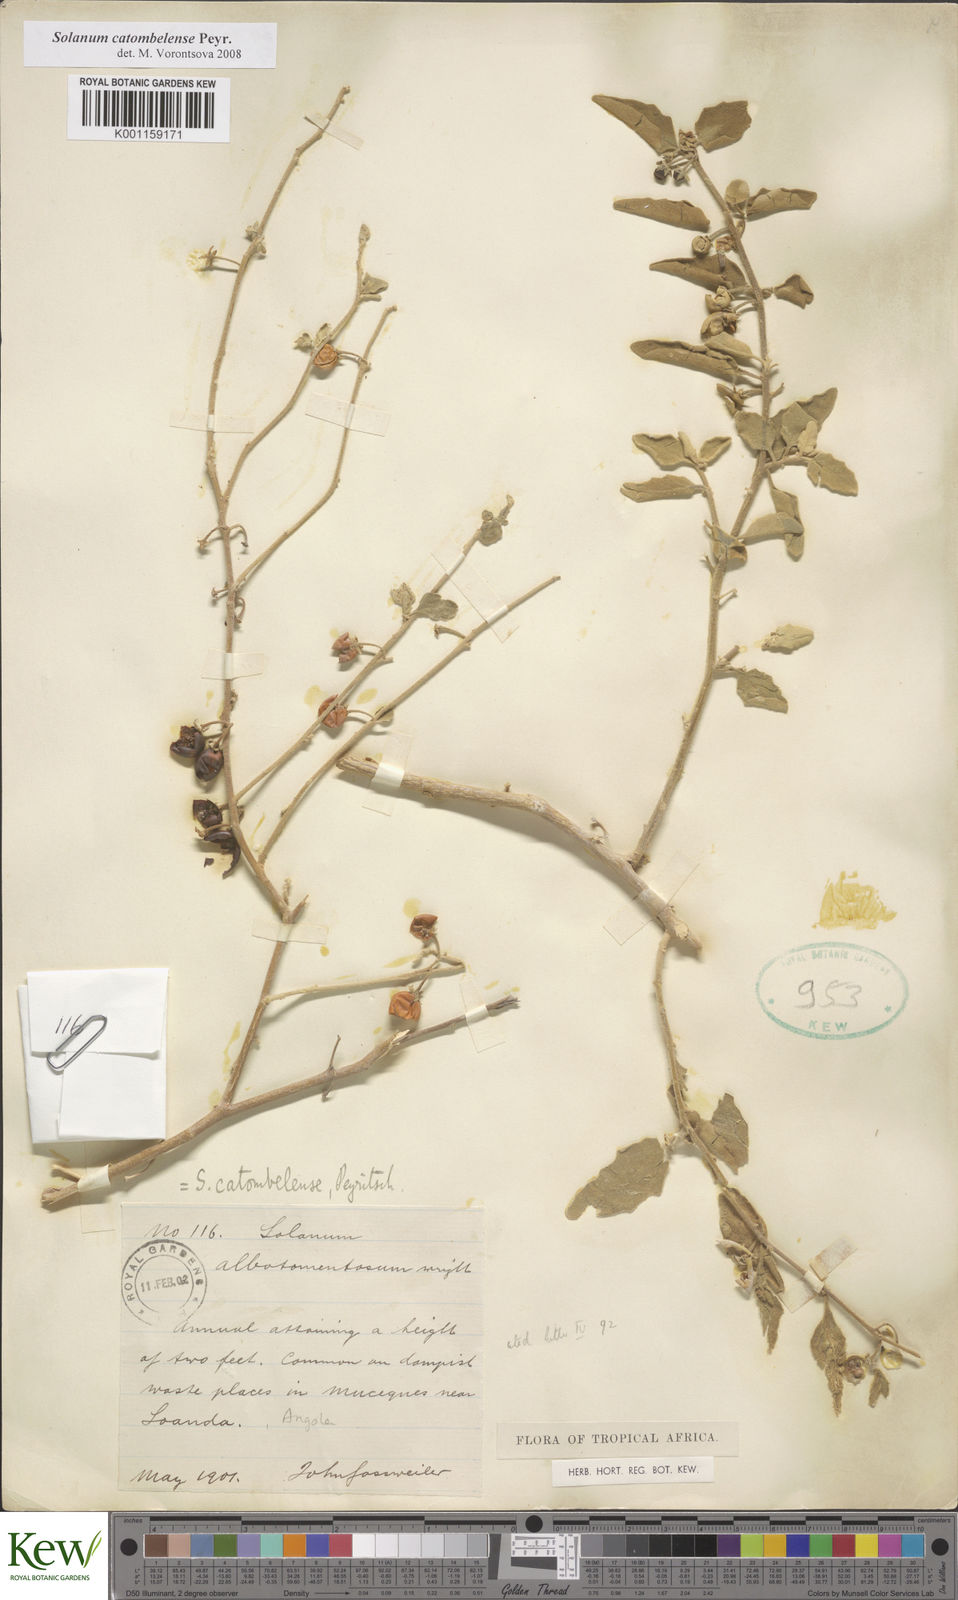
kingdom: Plantae
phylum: Tracheophyta
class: Magnoliopsida
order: Solanales
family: Solanaceae
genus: Solanum
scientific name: Solanum catombelense
